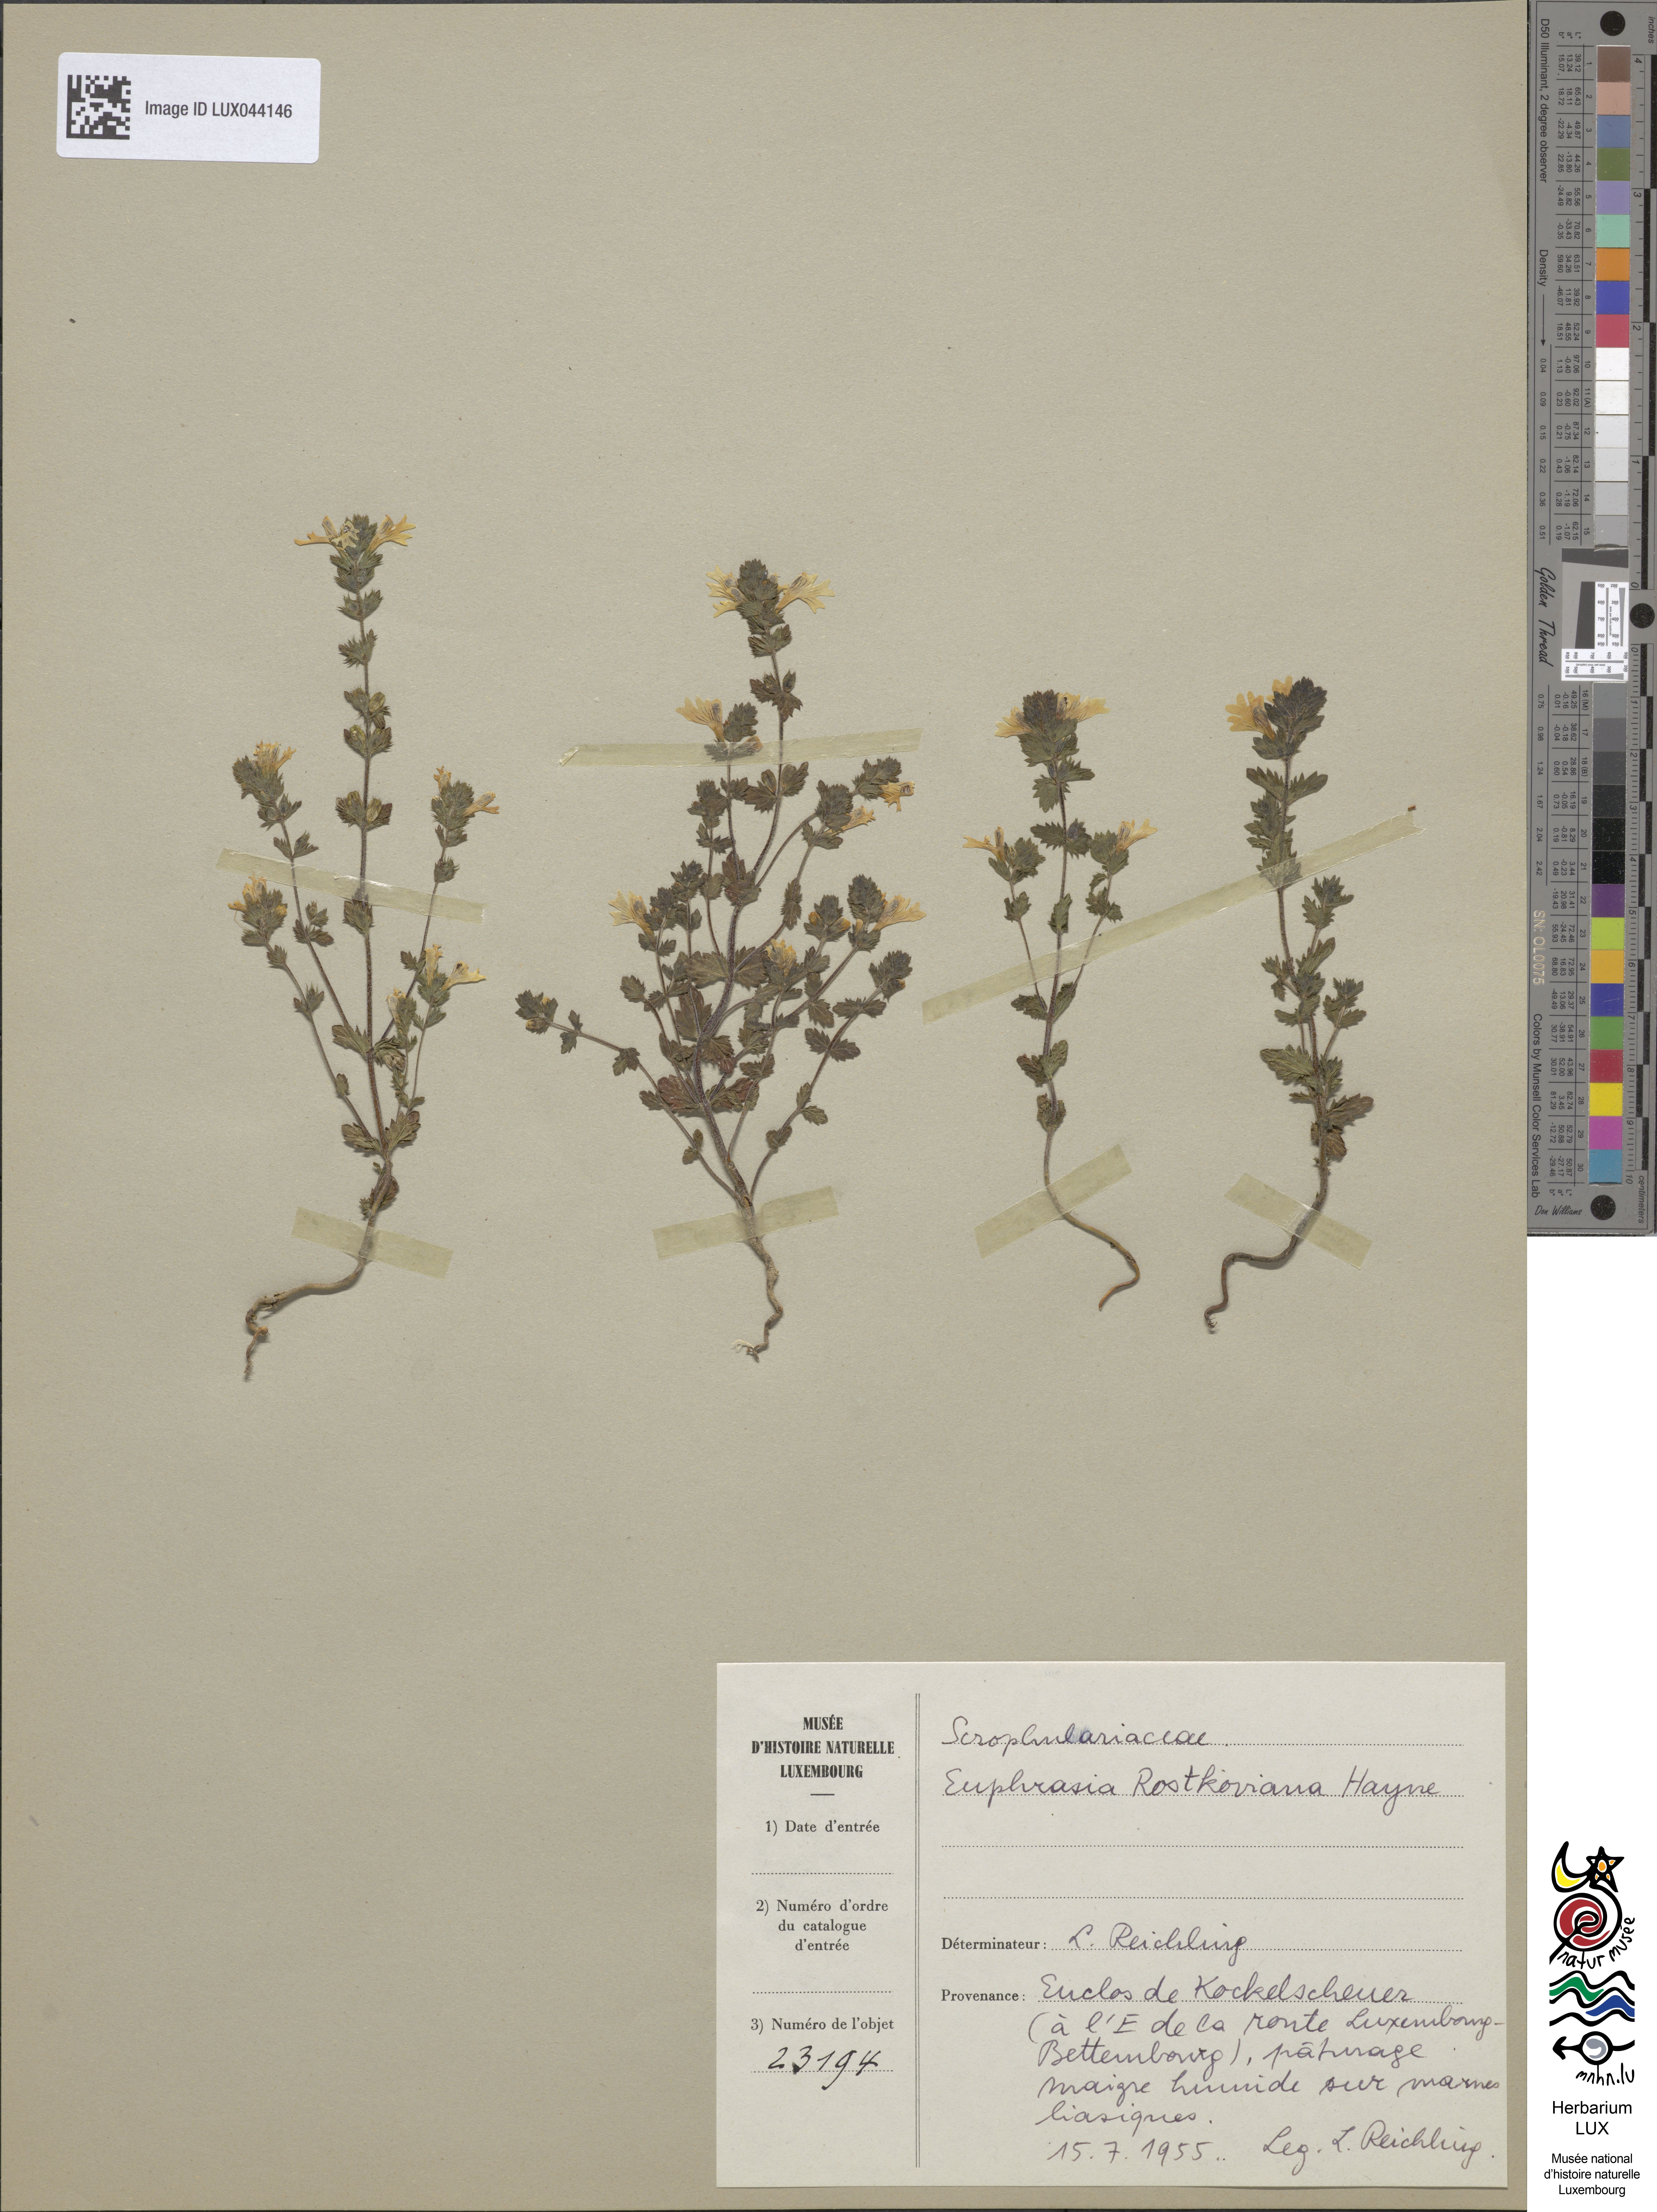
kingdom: Plantae
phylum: Tracheophyta
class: Magnoliopsida
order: Lamiales
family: Orobanchaceae
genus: Euphrasia
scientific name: Euphrasia officinalis
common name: Eyebright
